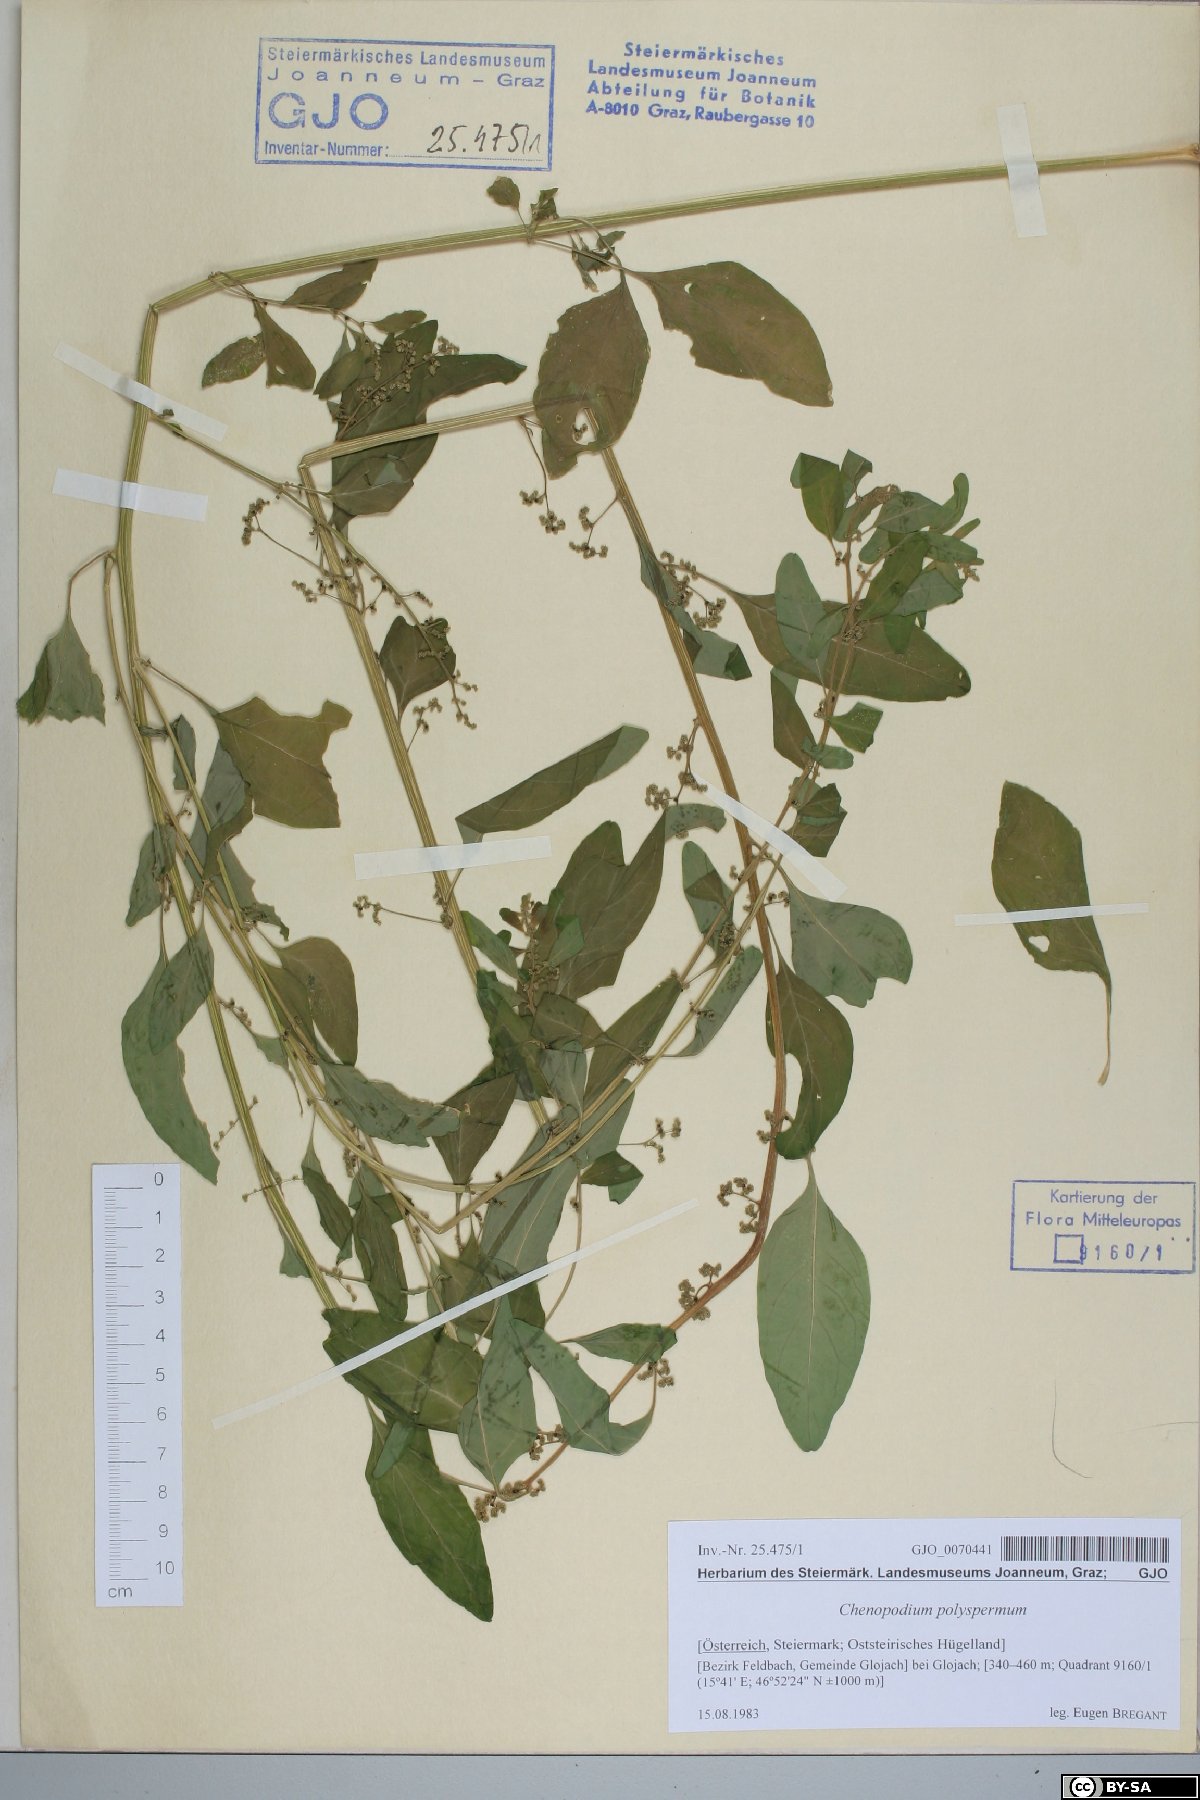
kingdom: Plantae
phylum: Tracheophyta
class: Magnoliopsida
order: Caryophyllales
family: Amaranthaceae
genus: Lipandra
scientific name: Lipandra polysperma
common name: Many-seed goosefoot
